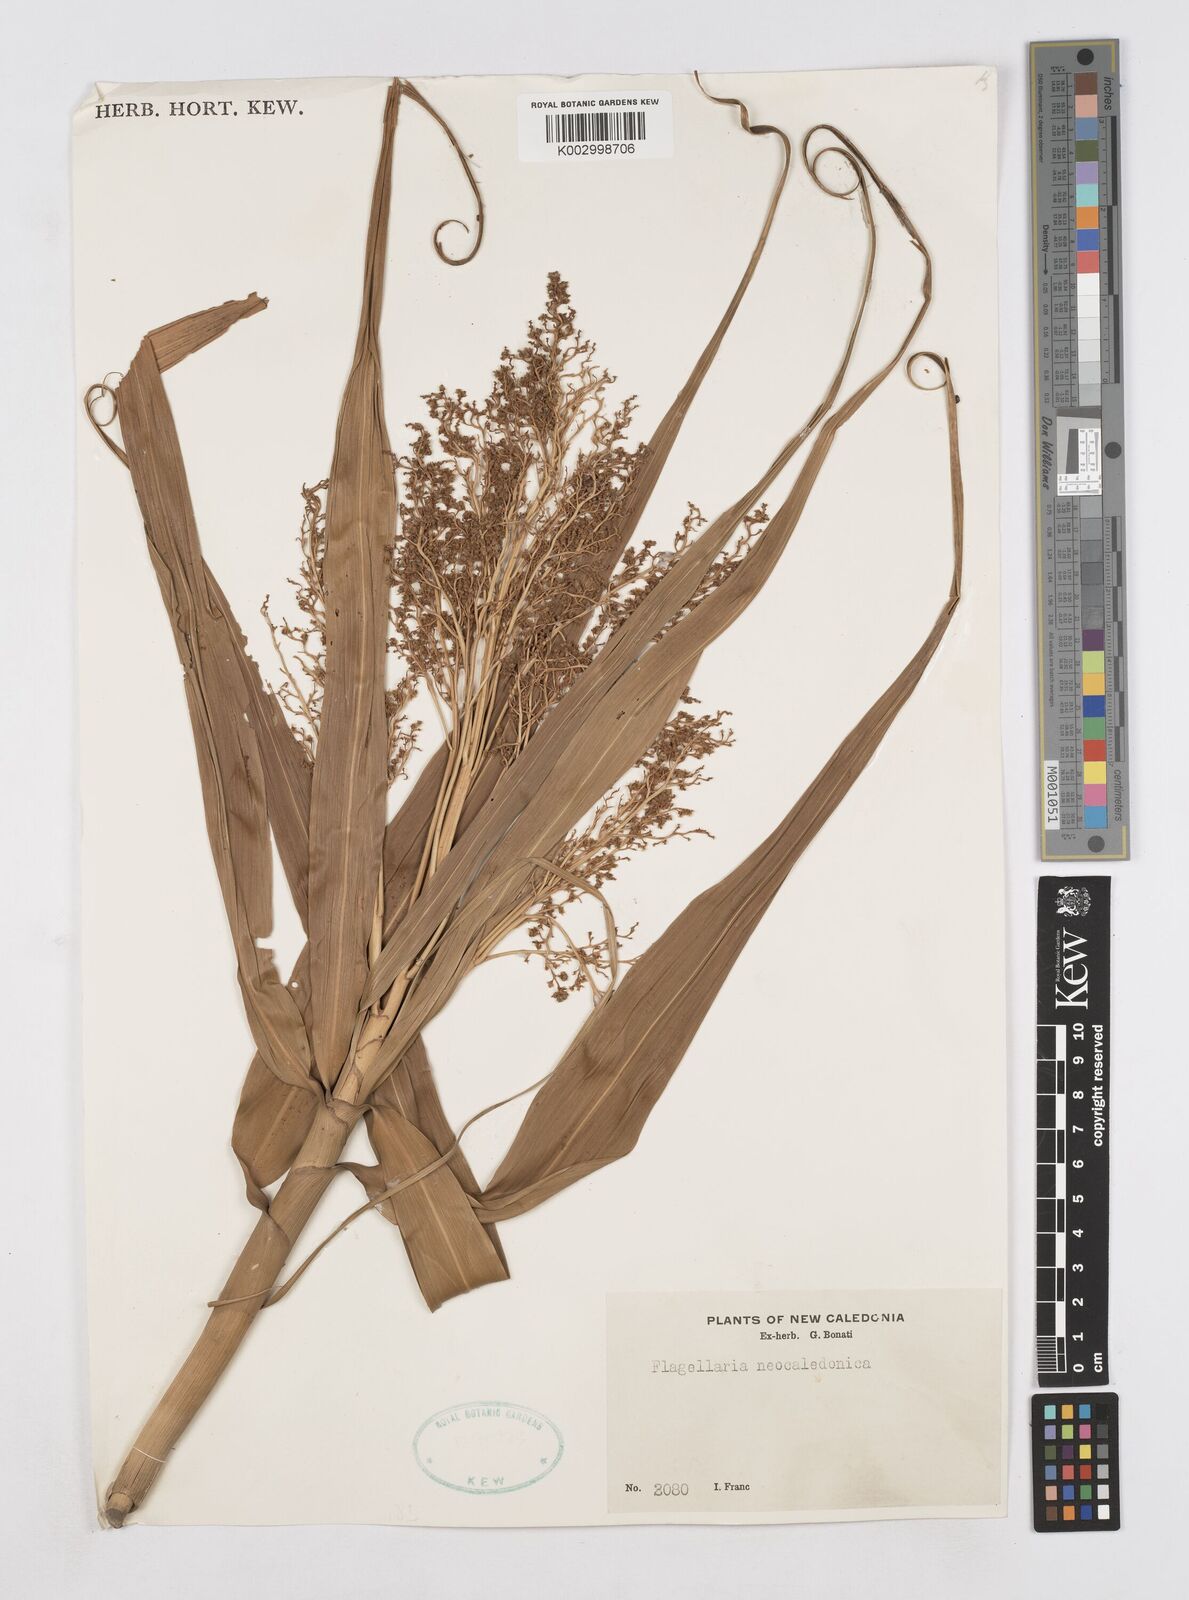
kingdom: Plantae
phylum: Tracheophyta
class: Liliopsida
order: Poales
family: Flagellariaceae
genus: Flagellaria
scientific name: Flagellaria neocaledonica
